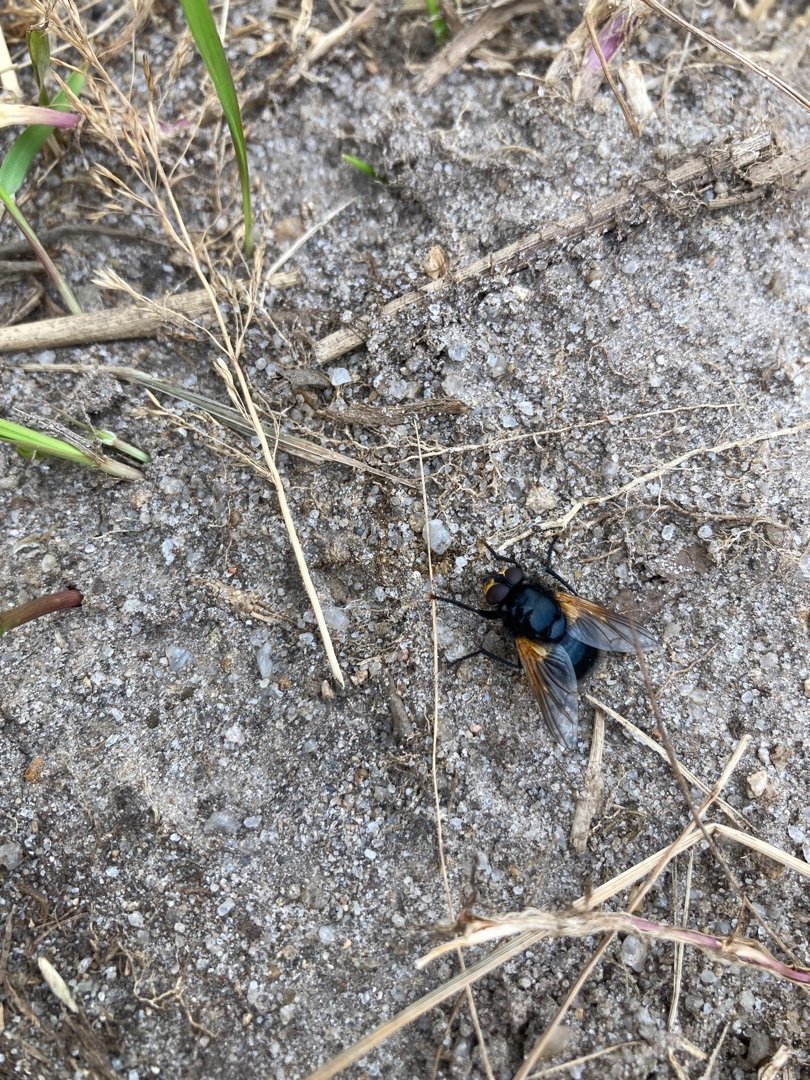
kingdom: Animalia
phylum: Arthropoda
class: Insecta
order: Diptera
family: Muscidae
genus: Mesembrina
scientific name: Mesembrina meridiana
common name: Gulvinget flue
